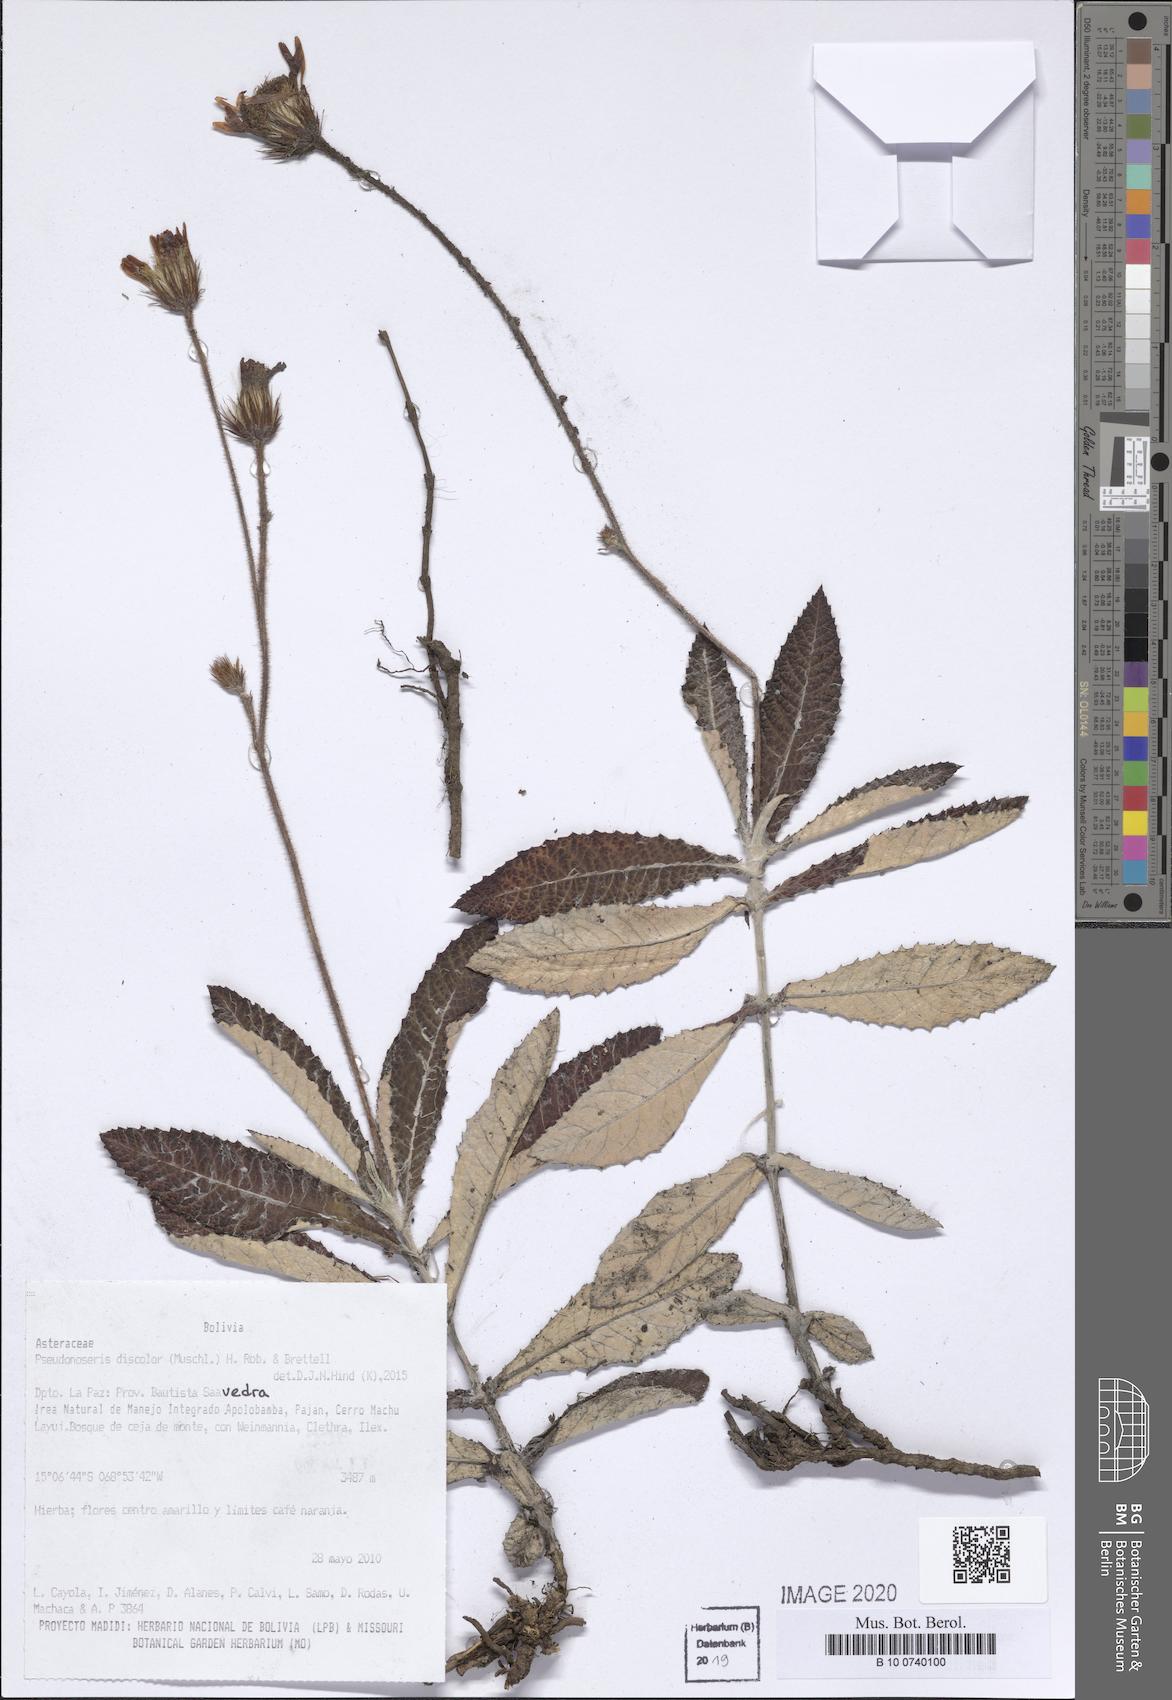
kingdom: Plantae
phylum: Tracheophyta
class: Magnoliopsida
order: Asterales
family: Asteraceae
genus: Pseudonoseris
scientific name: Pseudonoseris discolor
